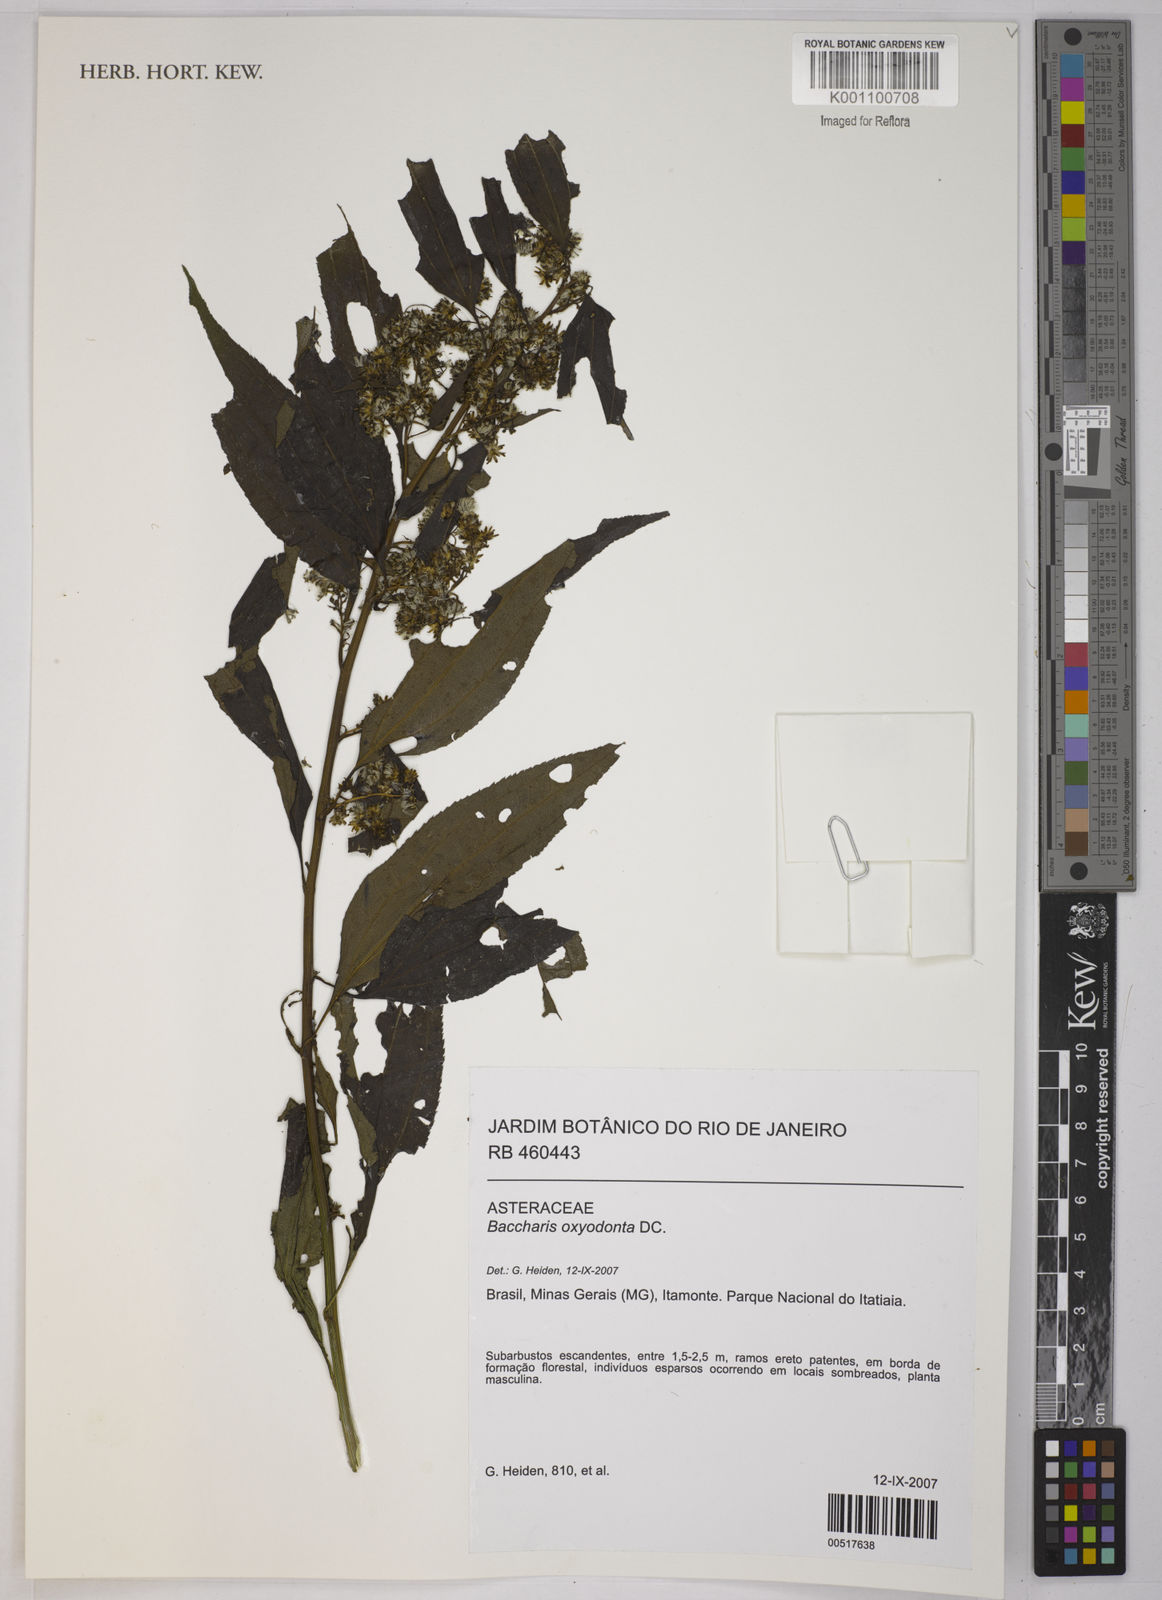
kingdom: Plantae
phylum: Tracheophyta
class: Magnoliopsida
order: Asterales
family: Asteraceae
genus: Baccharis
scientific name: Baccharis oxyodonta
